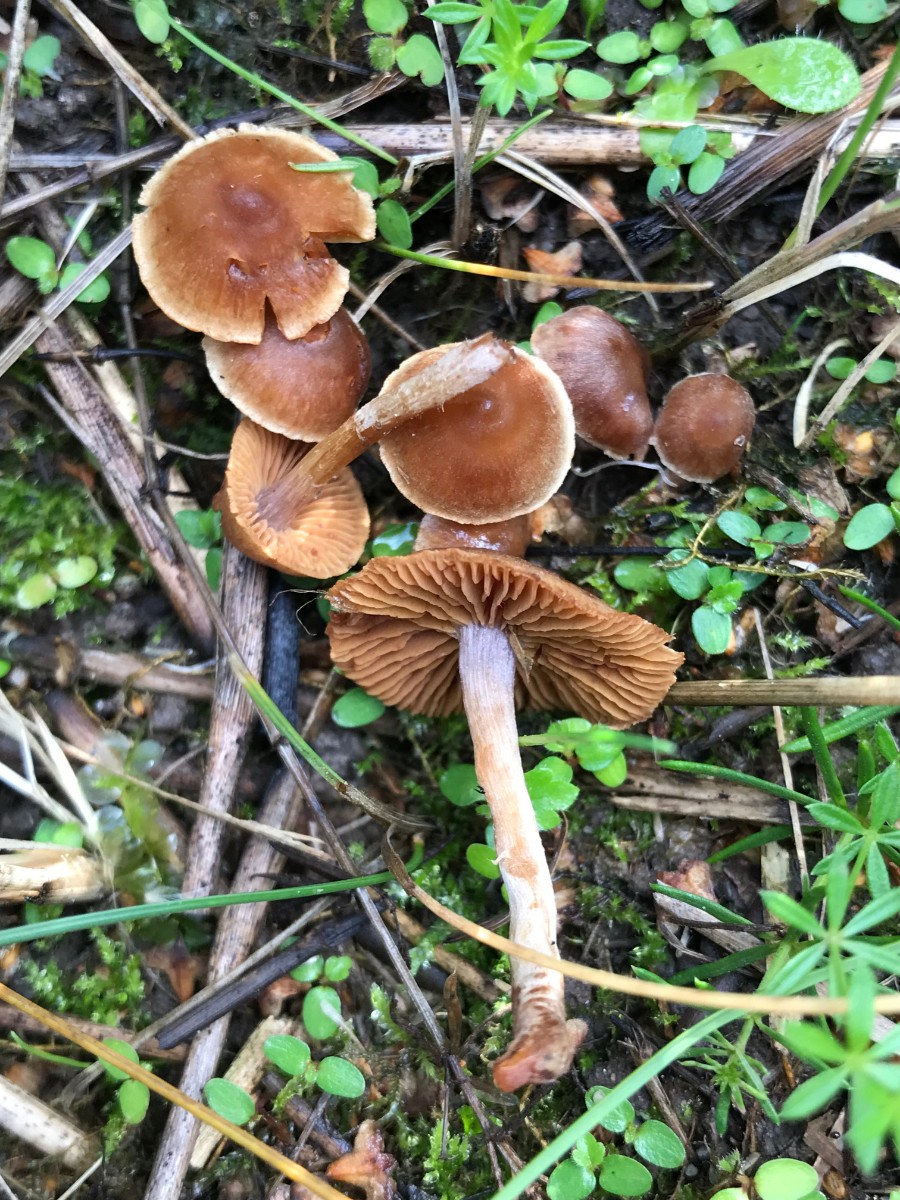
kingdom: Fungi
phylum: Basidiomycota
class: Agaricomycetes
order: Agaricales
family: Cortinariaceae
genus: Cortinarius
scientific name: Cortinarius
